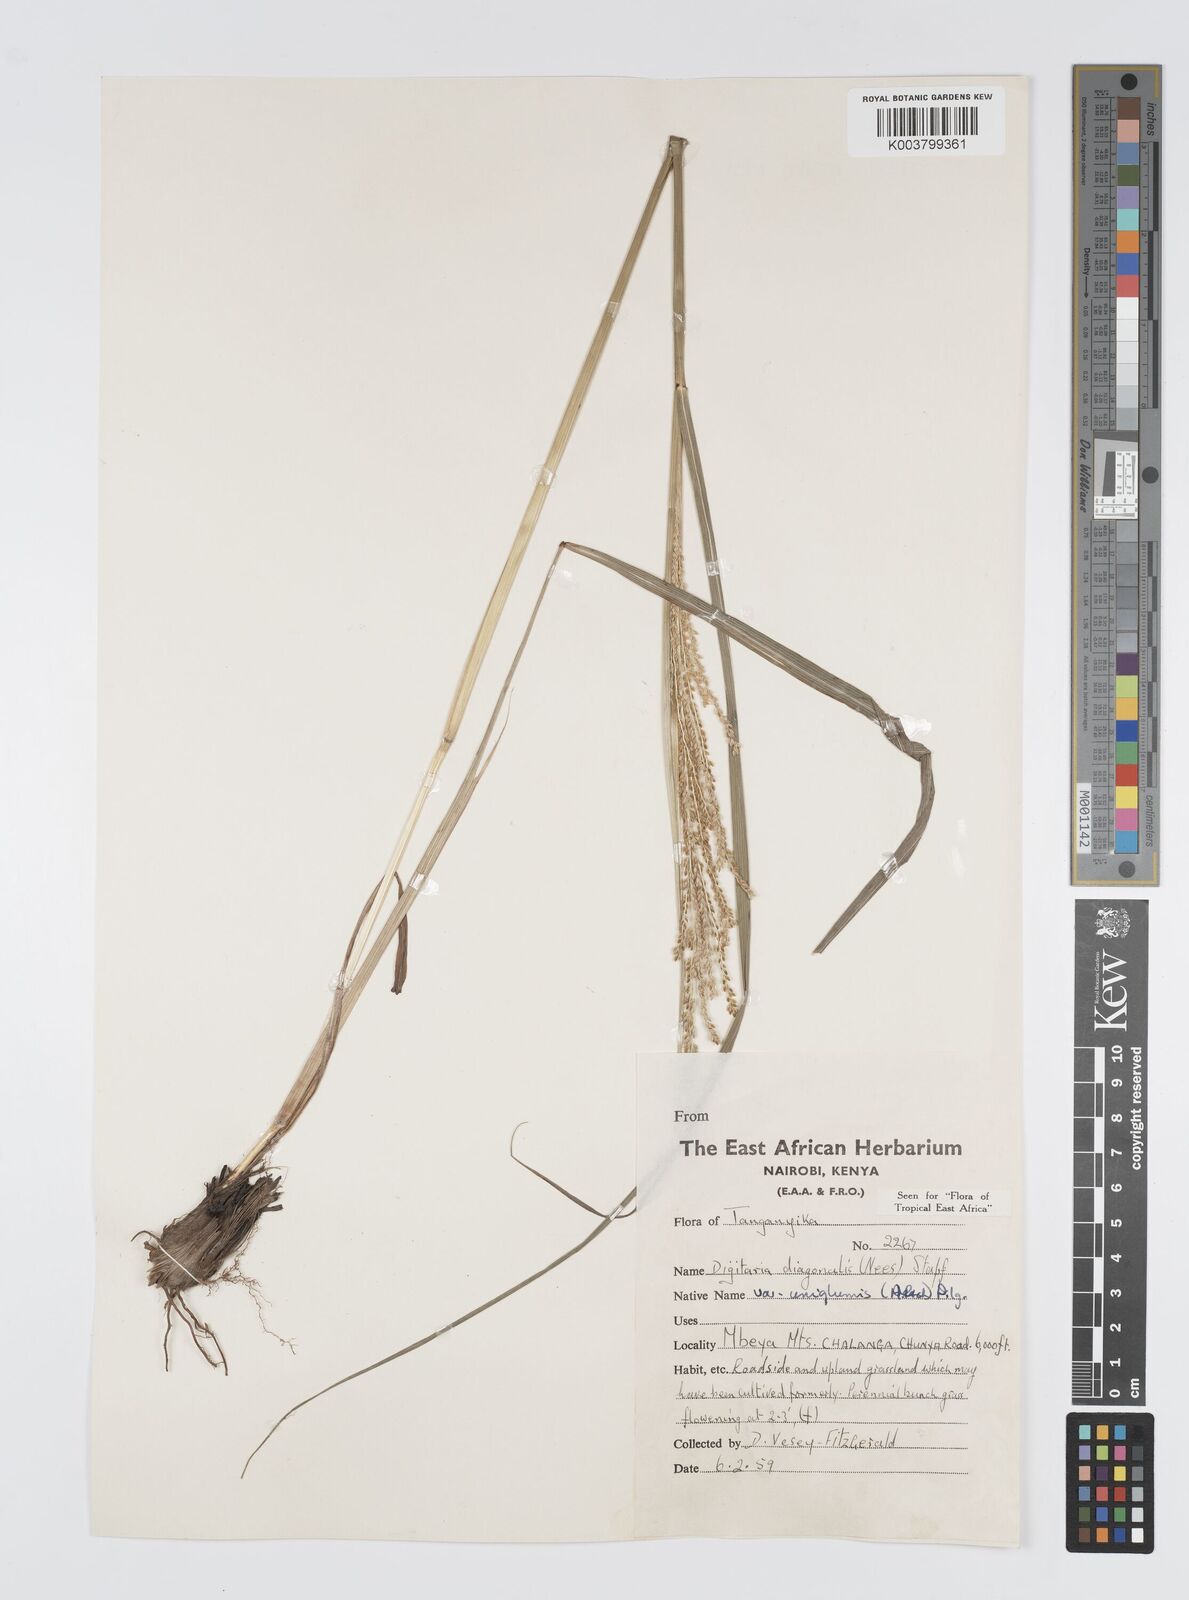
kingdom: Plantae
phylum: Tracheophyta
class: Liliopsida
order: Poales
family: Poaceae
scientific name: Poaceae
